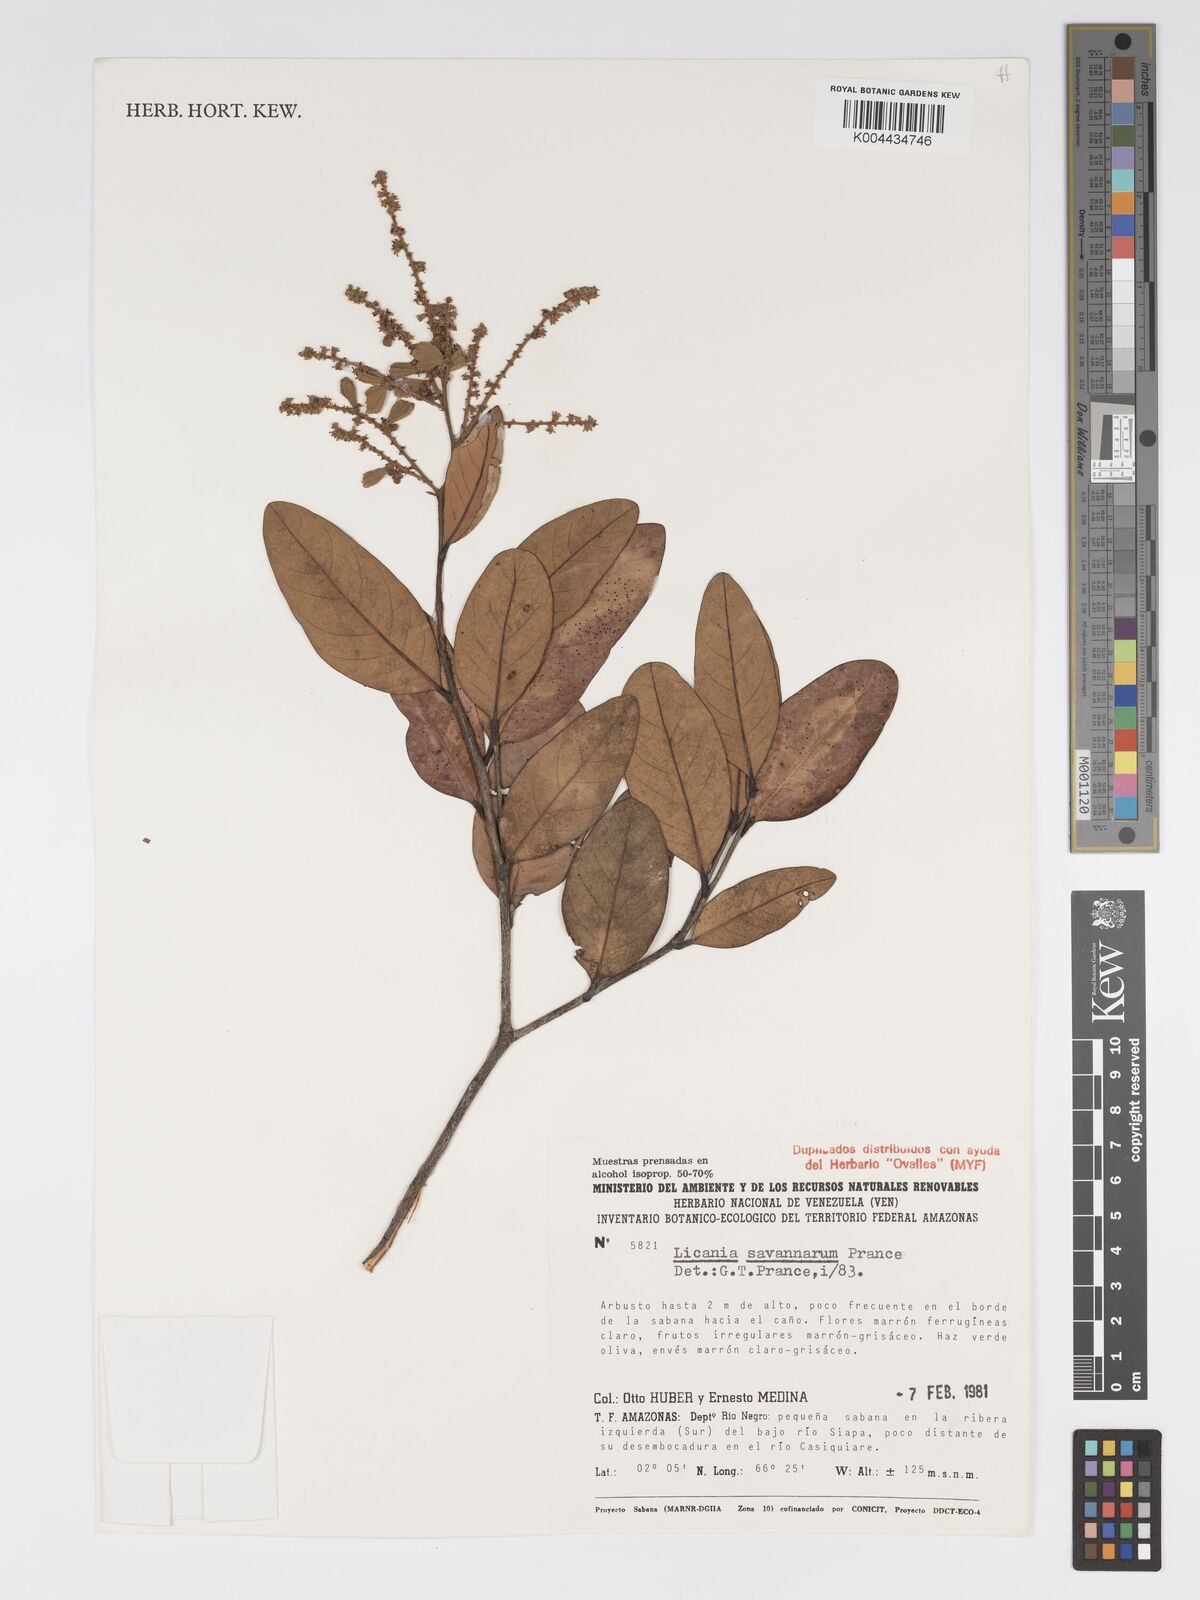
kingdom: Plantae
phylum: Tracheophyta
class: Magnoliopsida
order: Malpighiales
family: Chrysobalanaceae
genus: Licania
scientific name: Licania savannarum
